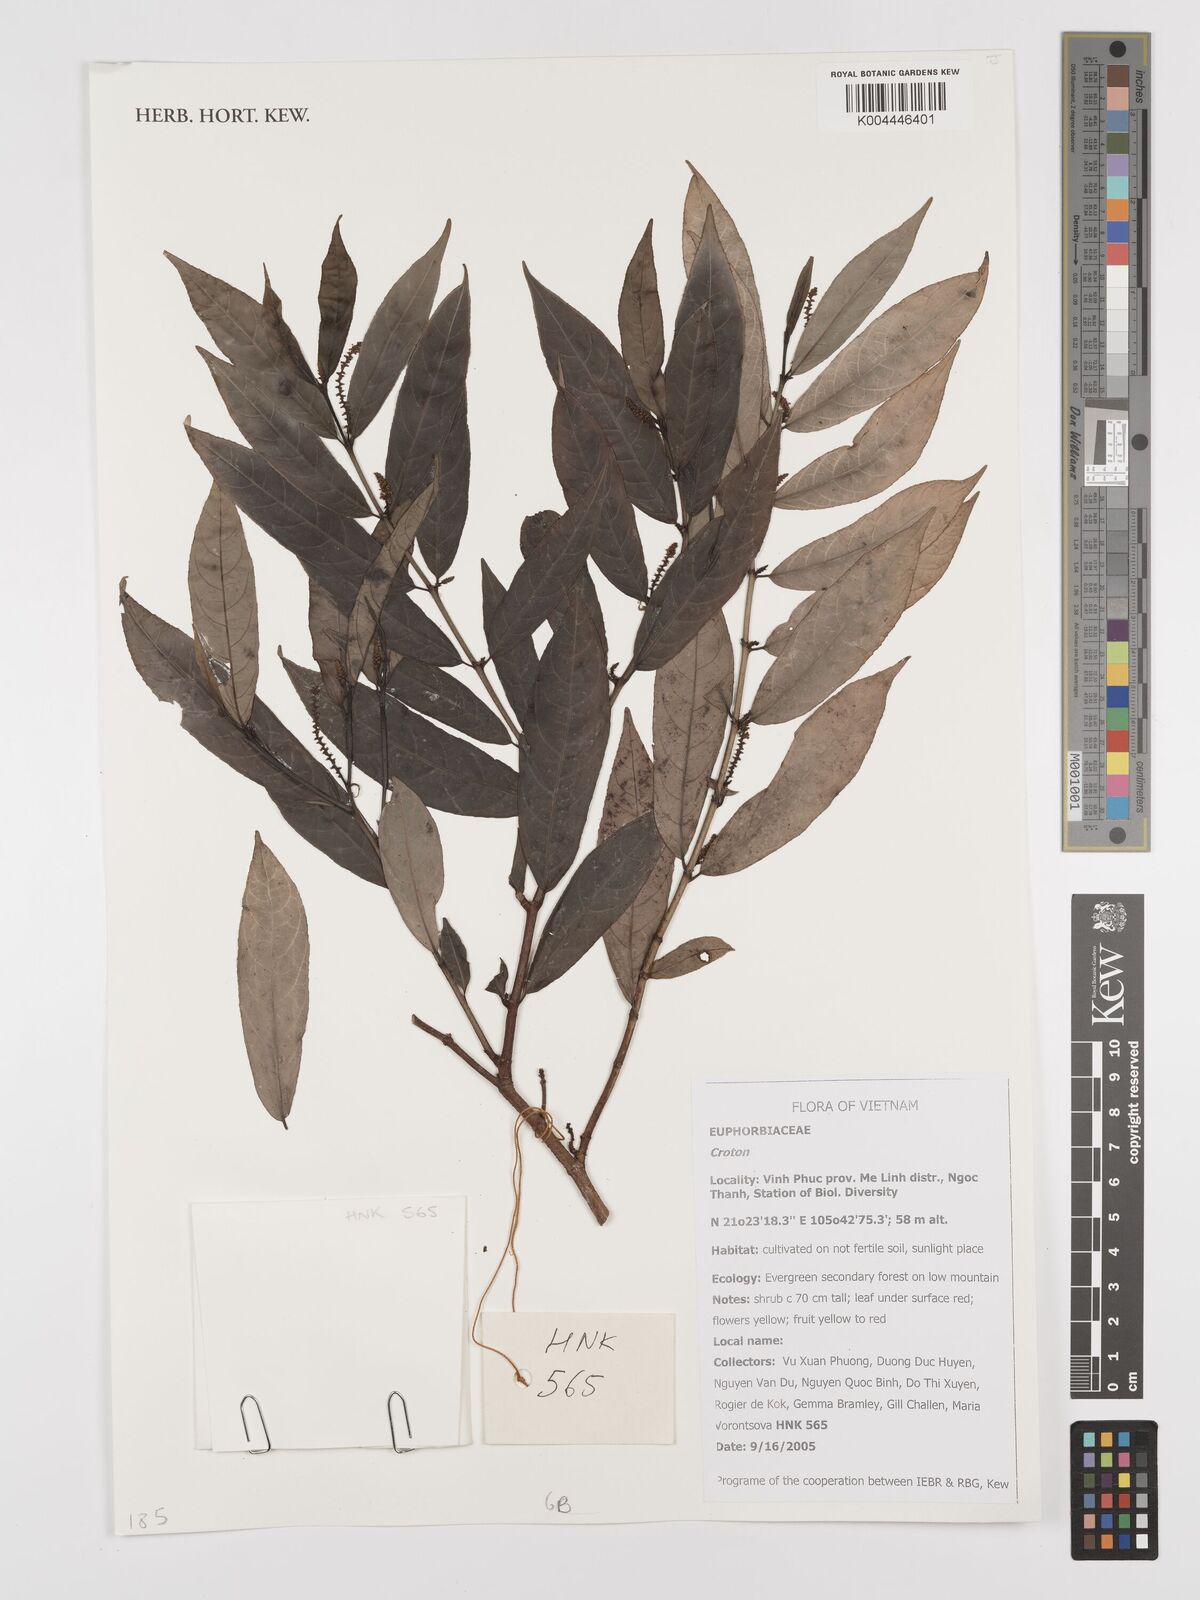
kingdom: Plantae
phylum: Tracheophyta
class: Magnoliopsida
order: Malpighiales
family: Euphorbiaceae
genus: Croton
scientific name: Croton
